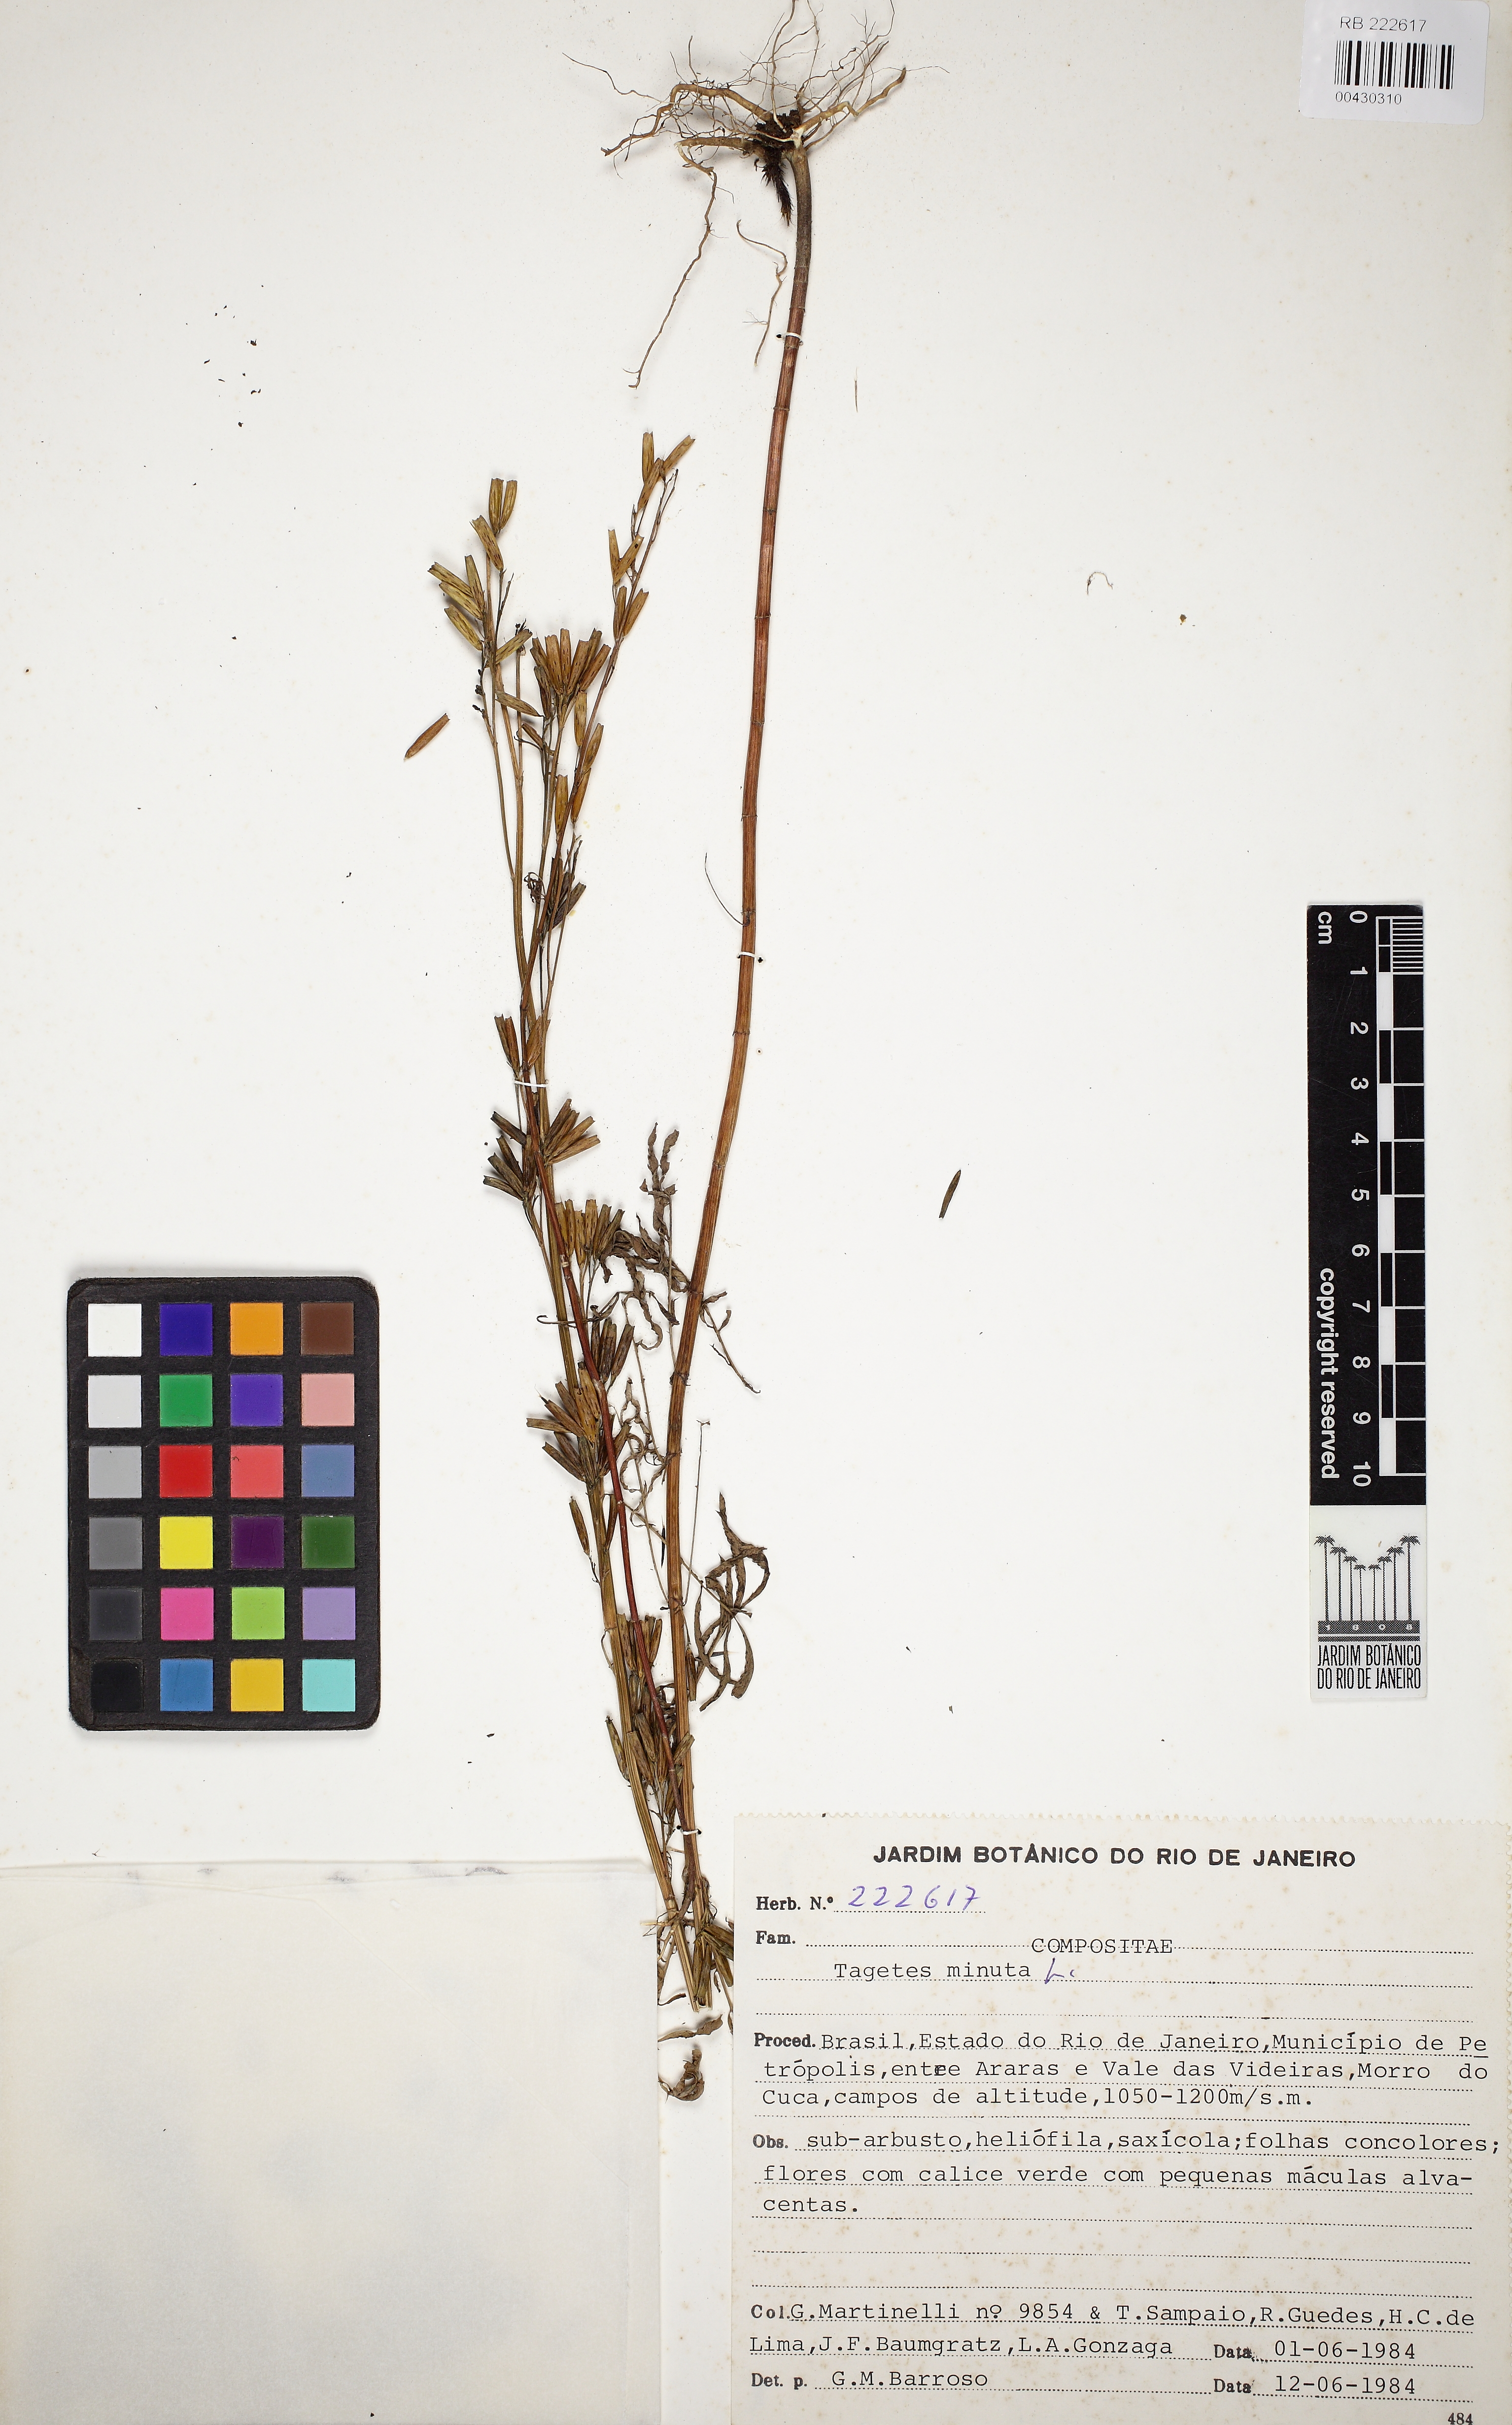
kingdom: Plantae
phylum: Tracheophyta
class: Magnoliopsida
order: Asterales
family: Asteraceae
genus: Tagetes
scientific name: Tagetes minuta
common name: Muster john henry
